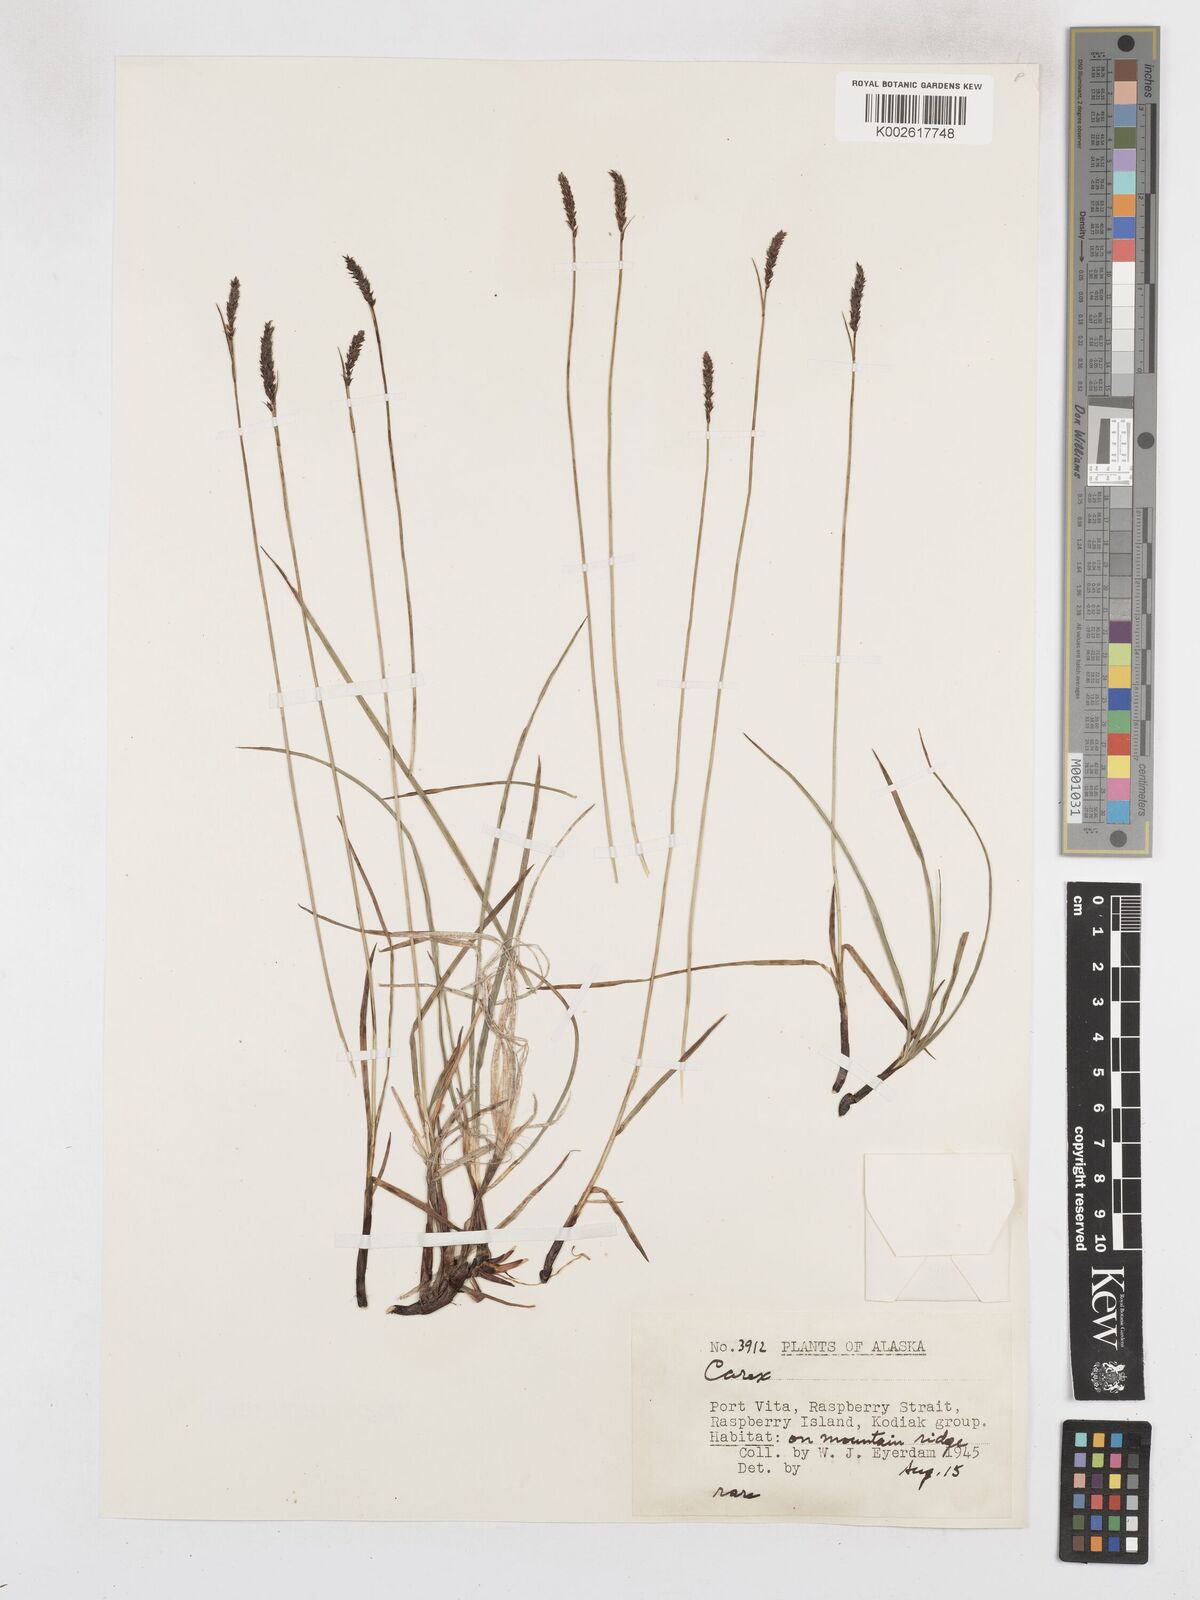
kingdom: Plantae
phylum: Tracheophyta
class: Liliopsida
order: Poales
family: Cyperaceae
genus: Carex
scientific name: Carex scirpoidea
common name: Canada single-spike sedge
